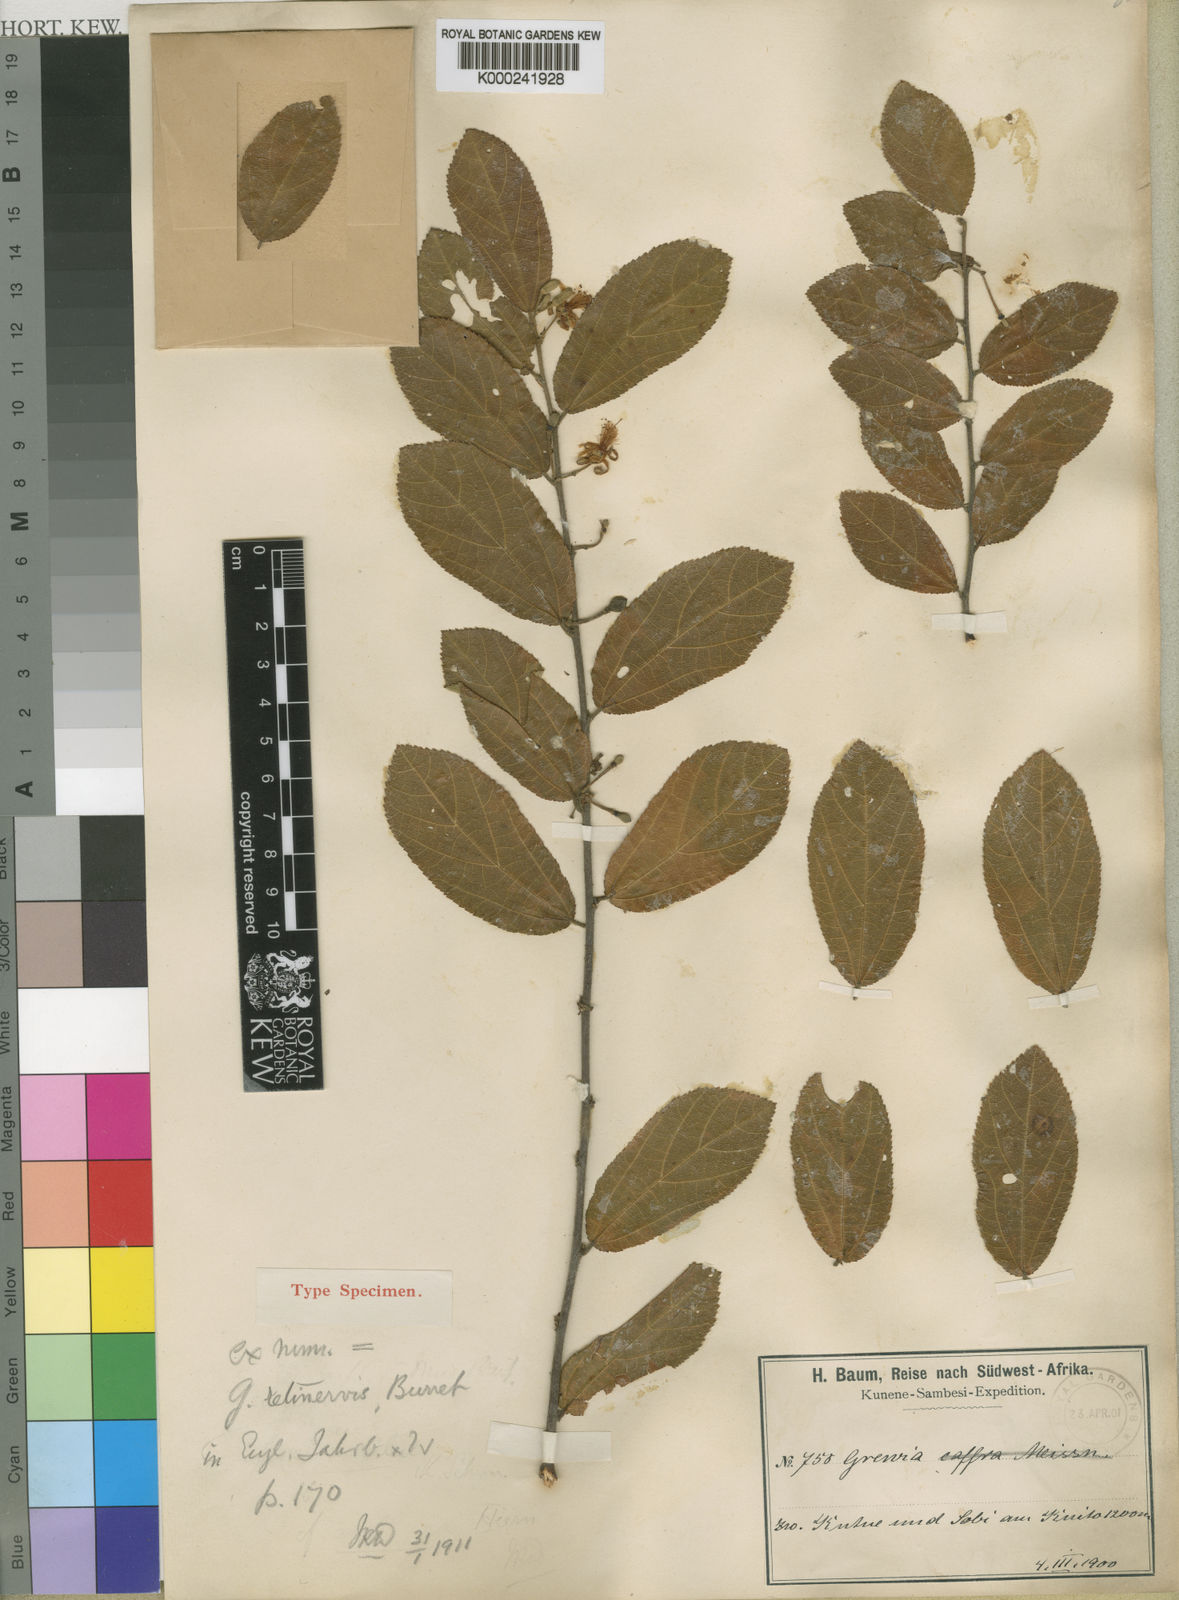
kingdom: Plantae
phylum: Tracheophyta
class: Magnoliopsida
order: Malvales
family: Malvaceae
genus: Grewia
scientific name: Grewia retinervis
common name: Kalahari raisin
